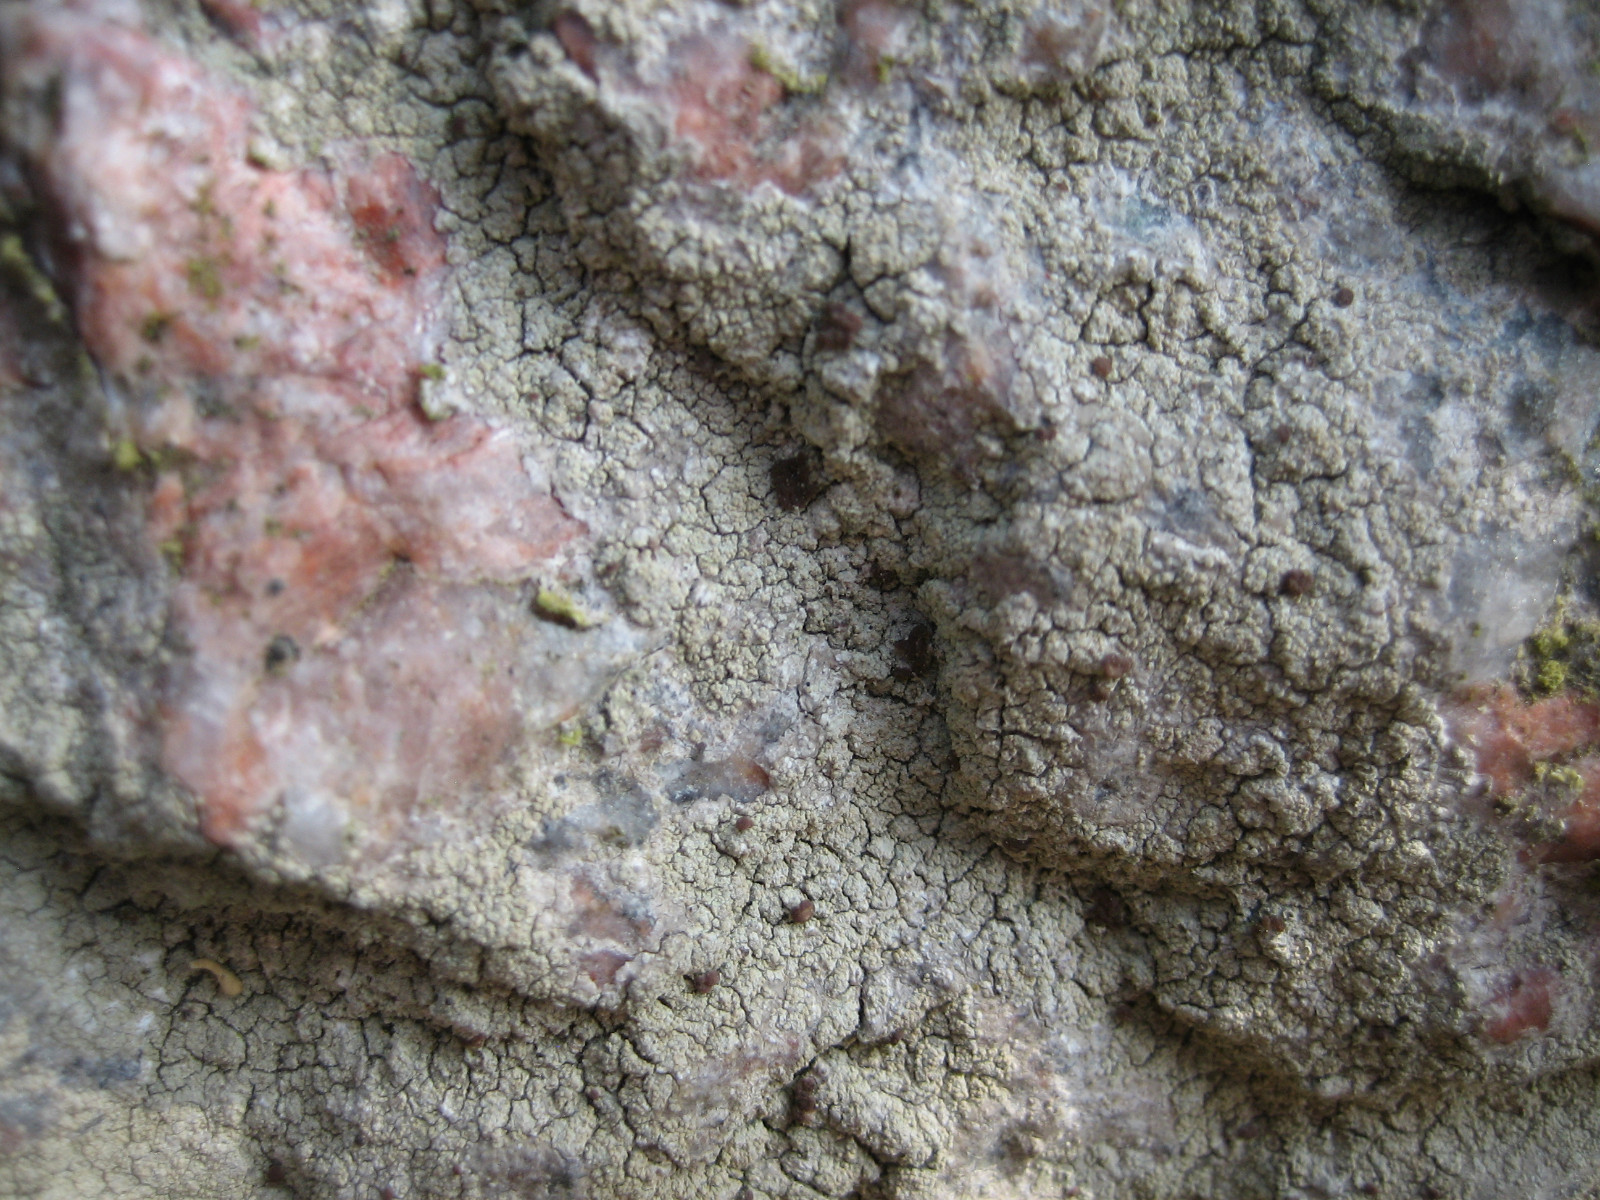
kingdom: Fungi
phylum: Ascomycota
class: Lecanoromycetes
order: Baeomycetales
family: Baeomycetaceae
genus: Baeomyces
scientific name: Baeomyces rufus
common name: rødbrun svampelav
